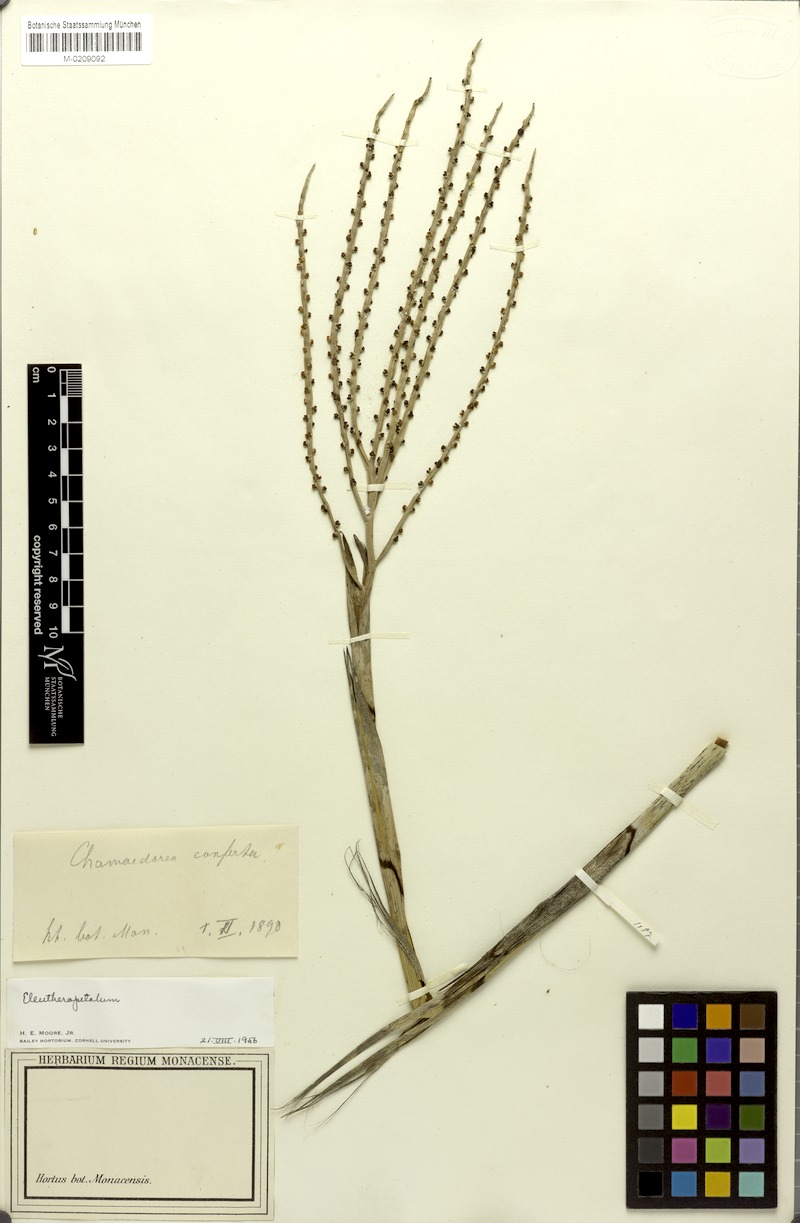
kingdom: Plantae
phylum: Tracheophyta
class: Liliopsida
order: Arecales
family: Arecaceae
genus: Chamaedorea
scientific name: Chamaedorea
